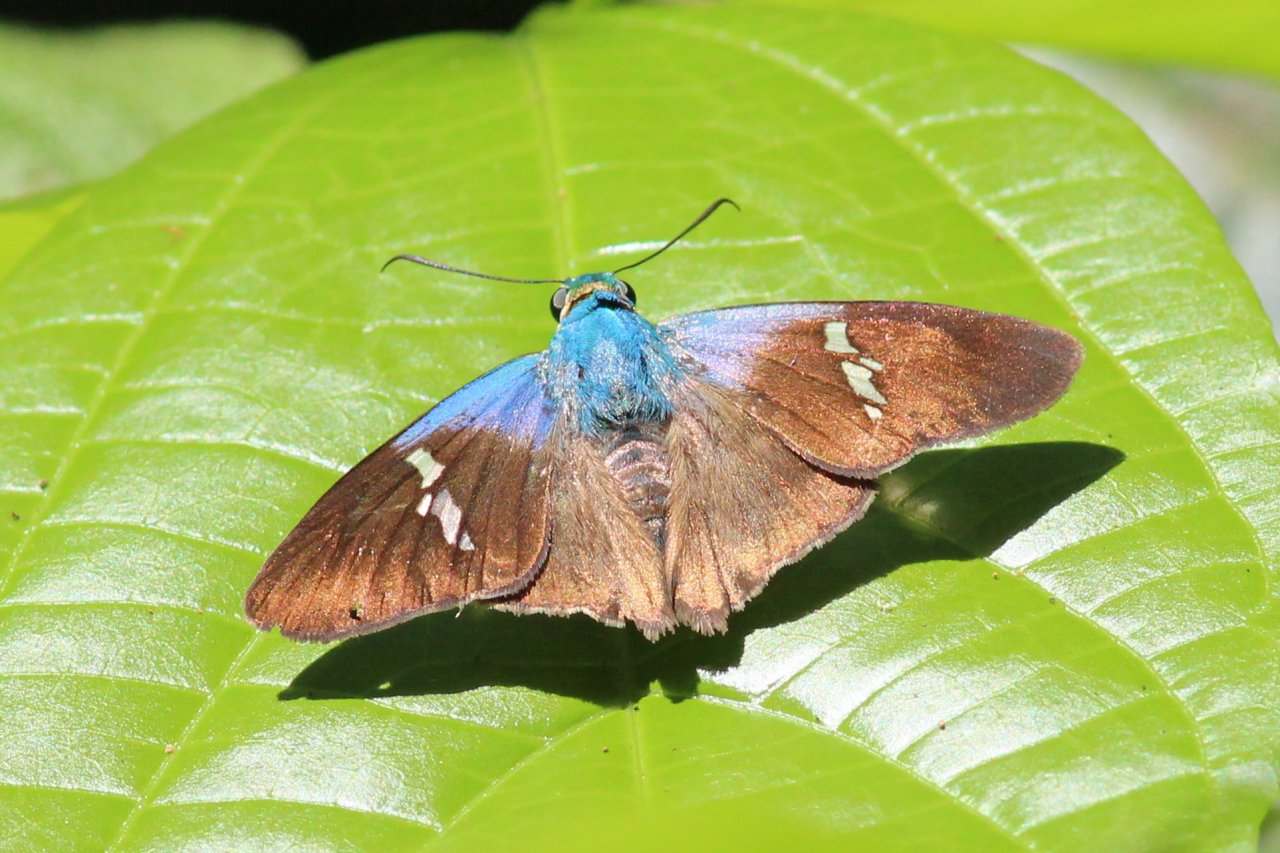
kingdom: Animalia
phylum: Arthropoda
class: Insecta
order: Lepidoptera
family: Hesperiidae
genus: Astraptes
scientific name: Astraptes
